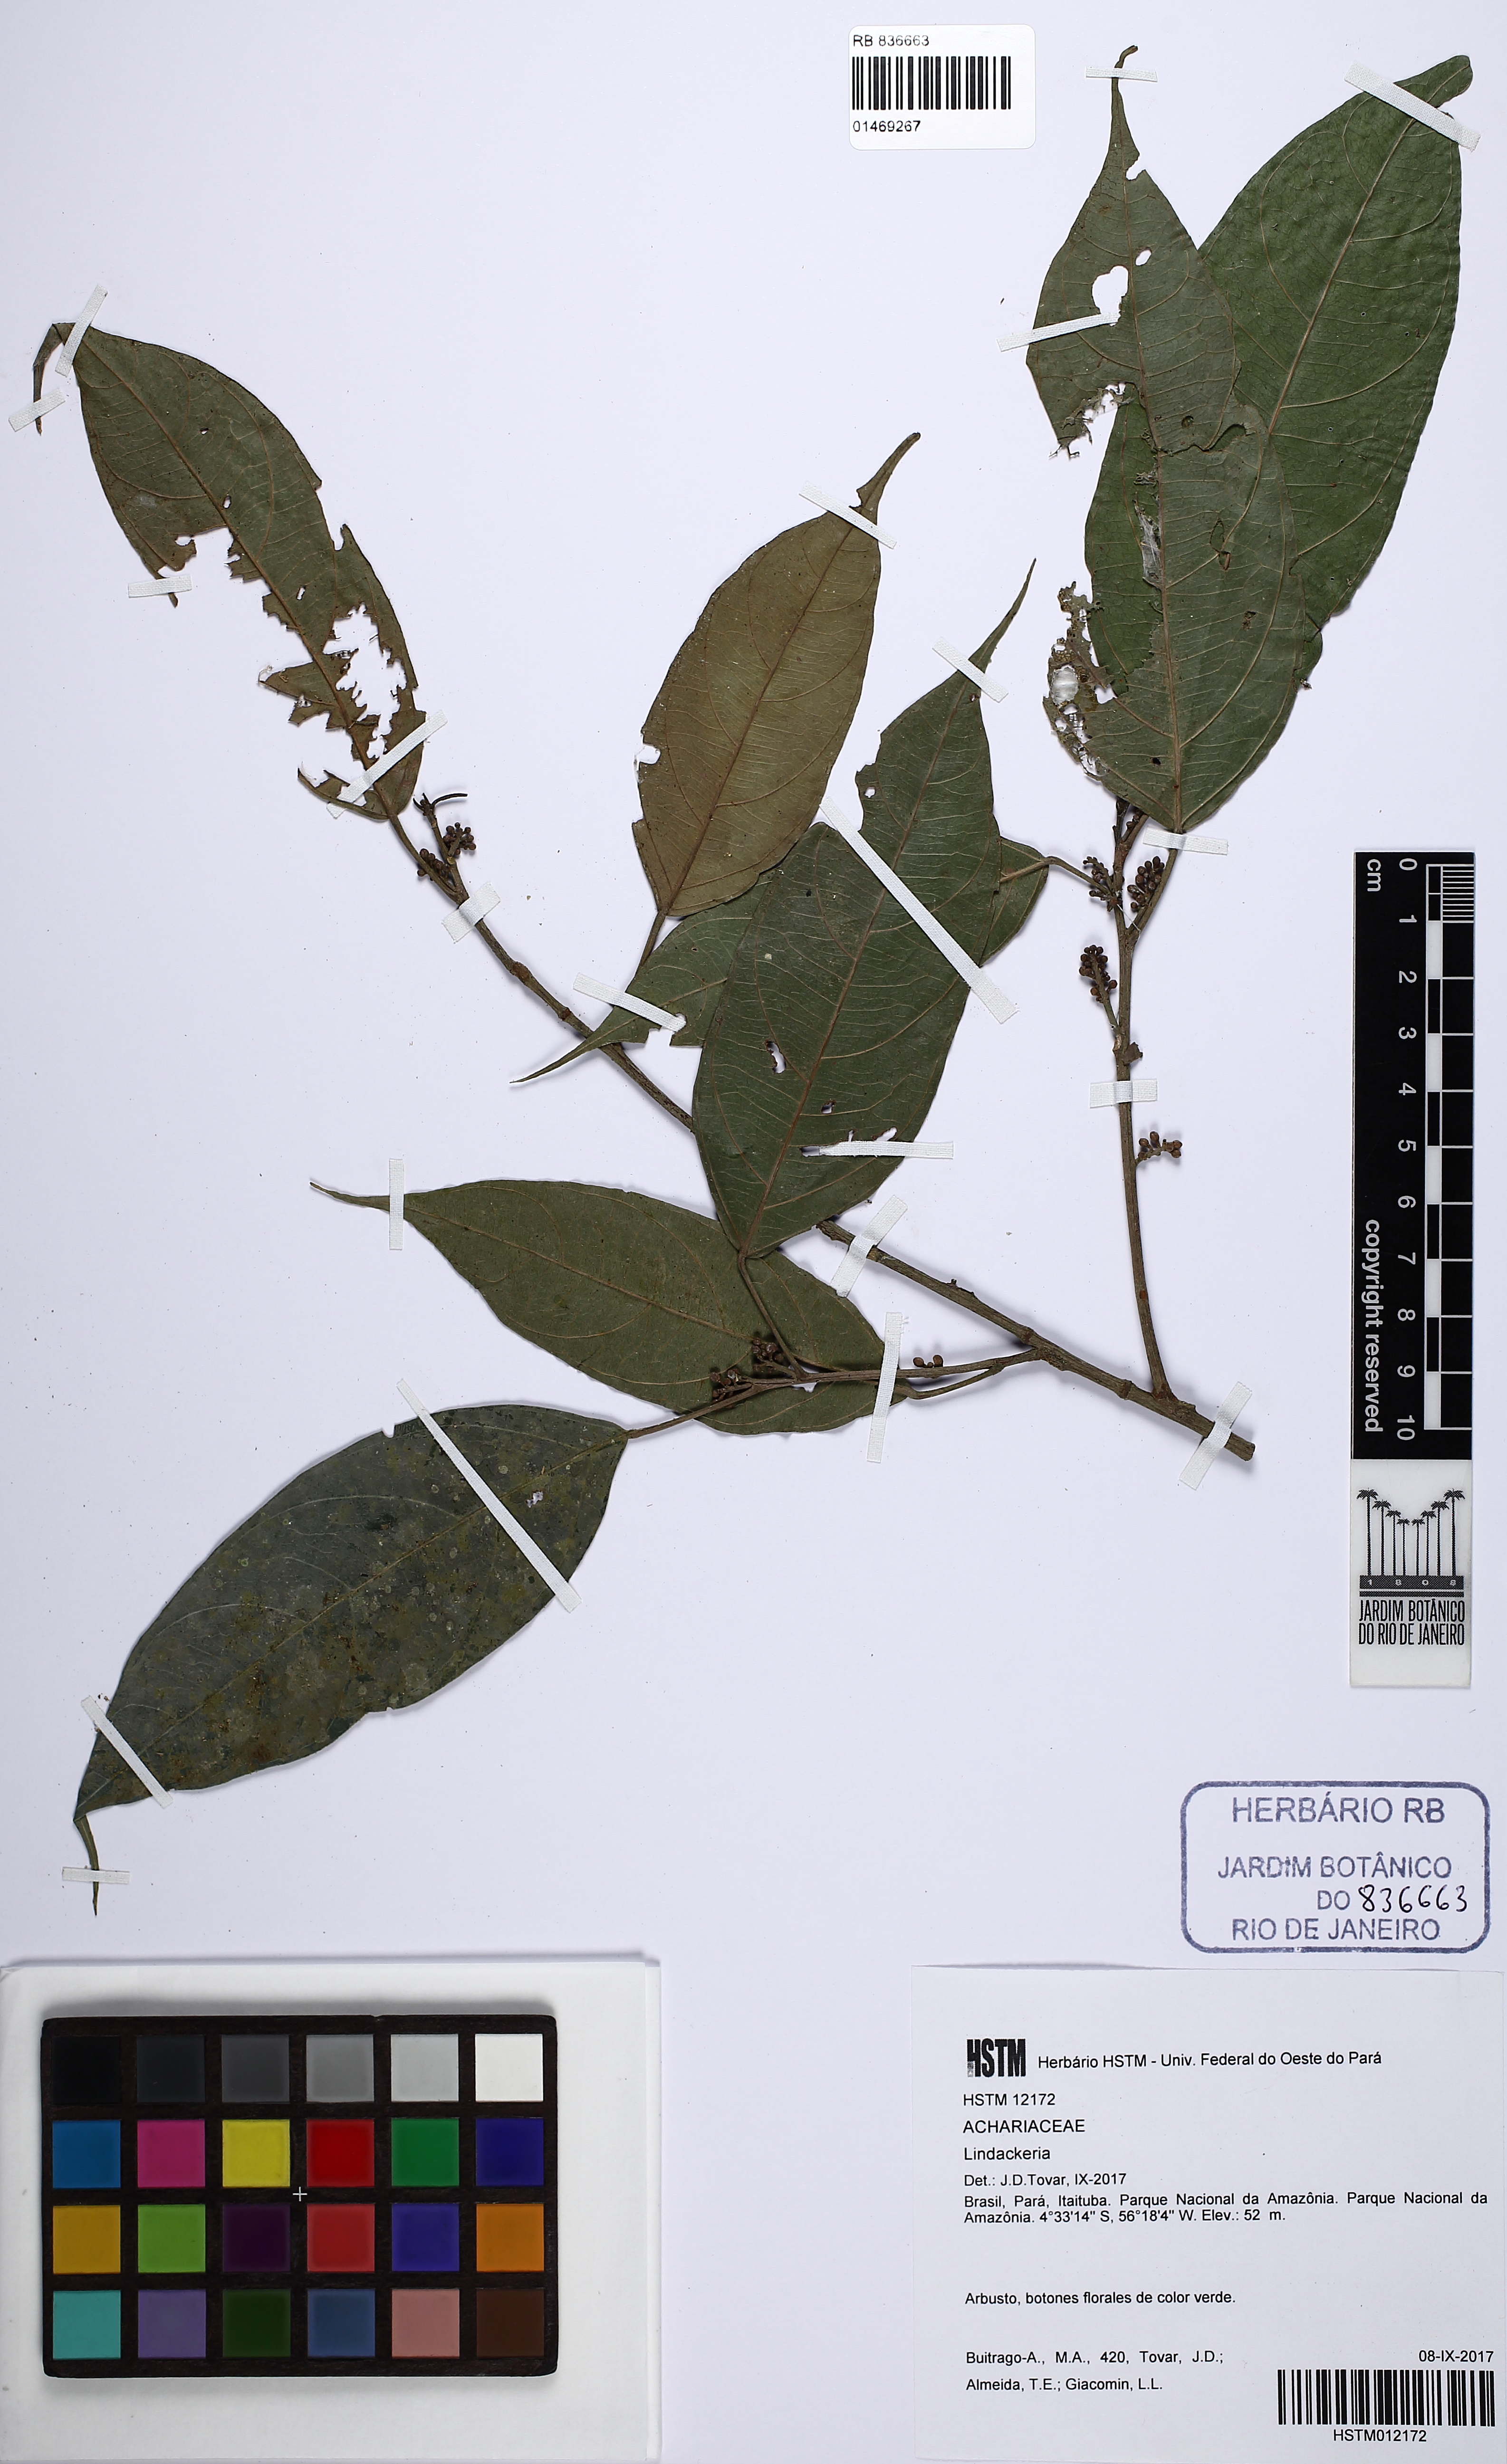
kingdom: Plantae
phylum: Tracheophyta
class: Magnoliopsida
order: Malpighiales
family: Achariaceae
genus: Lindackeria
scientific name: Lindackeria
